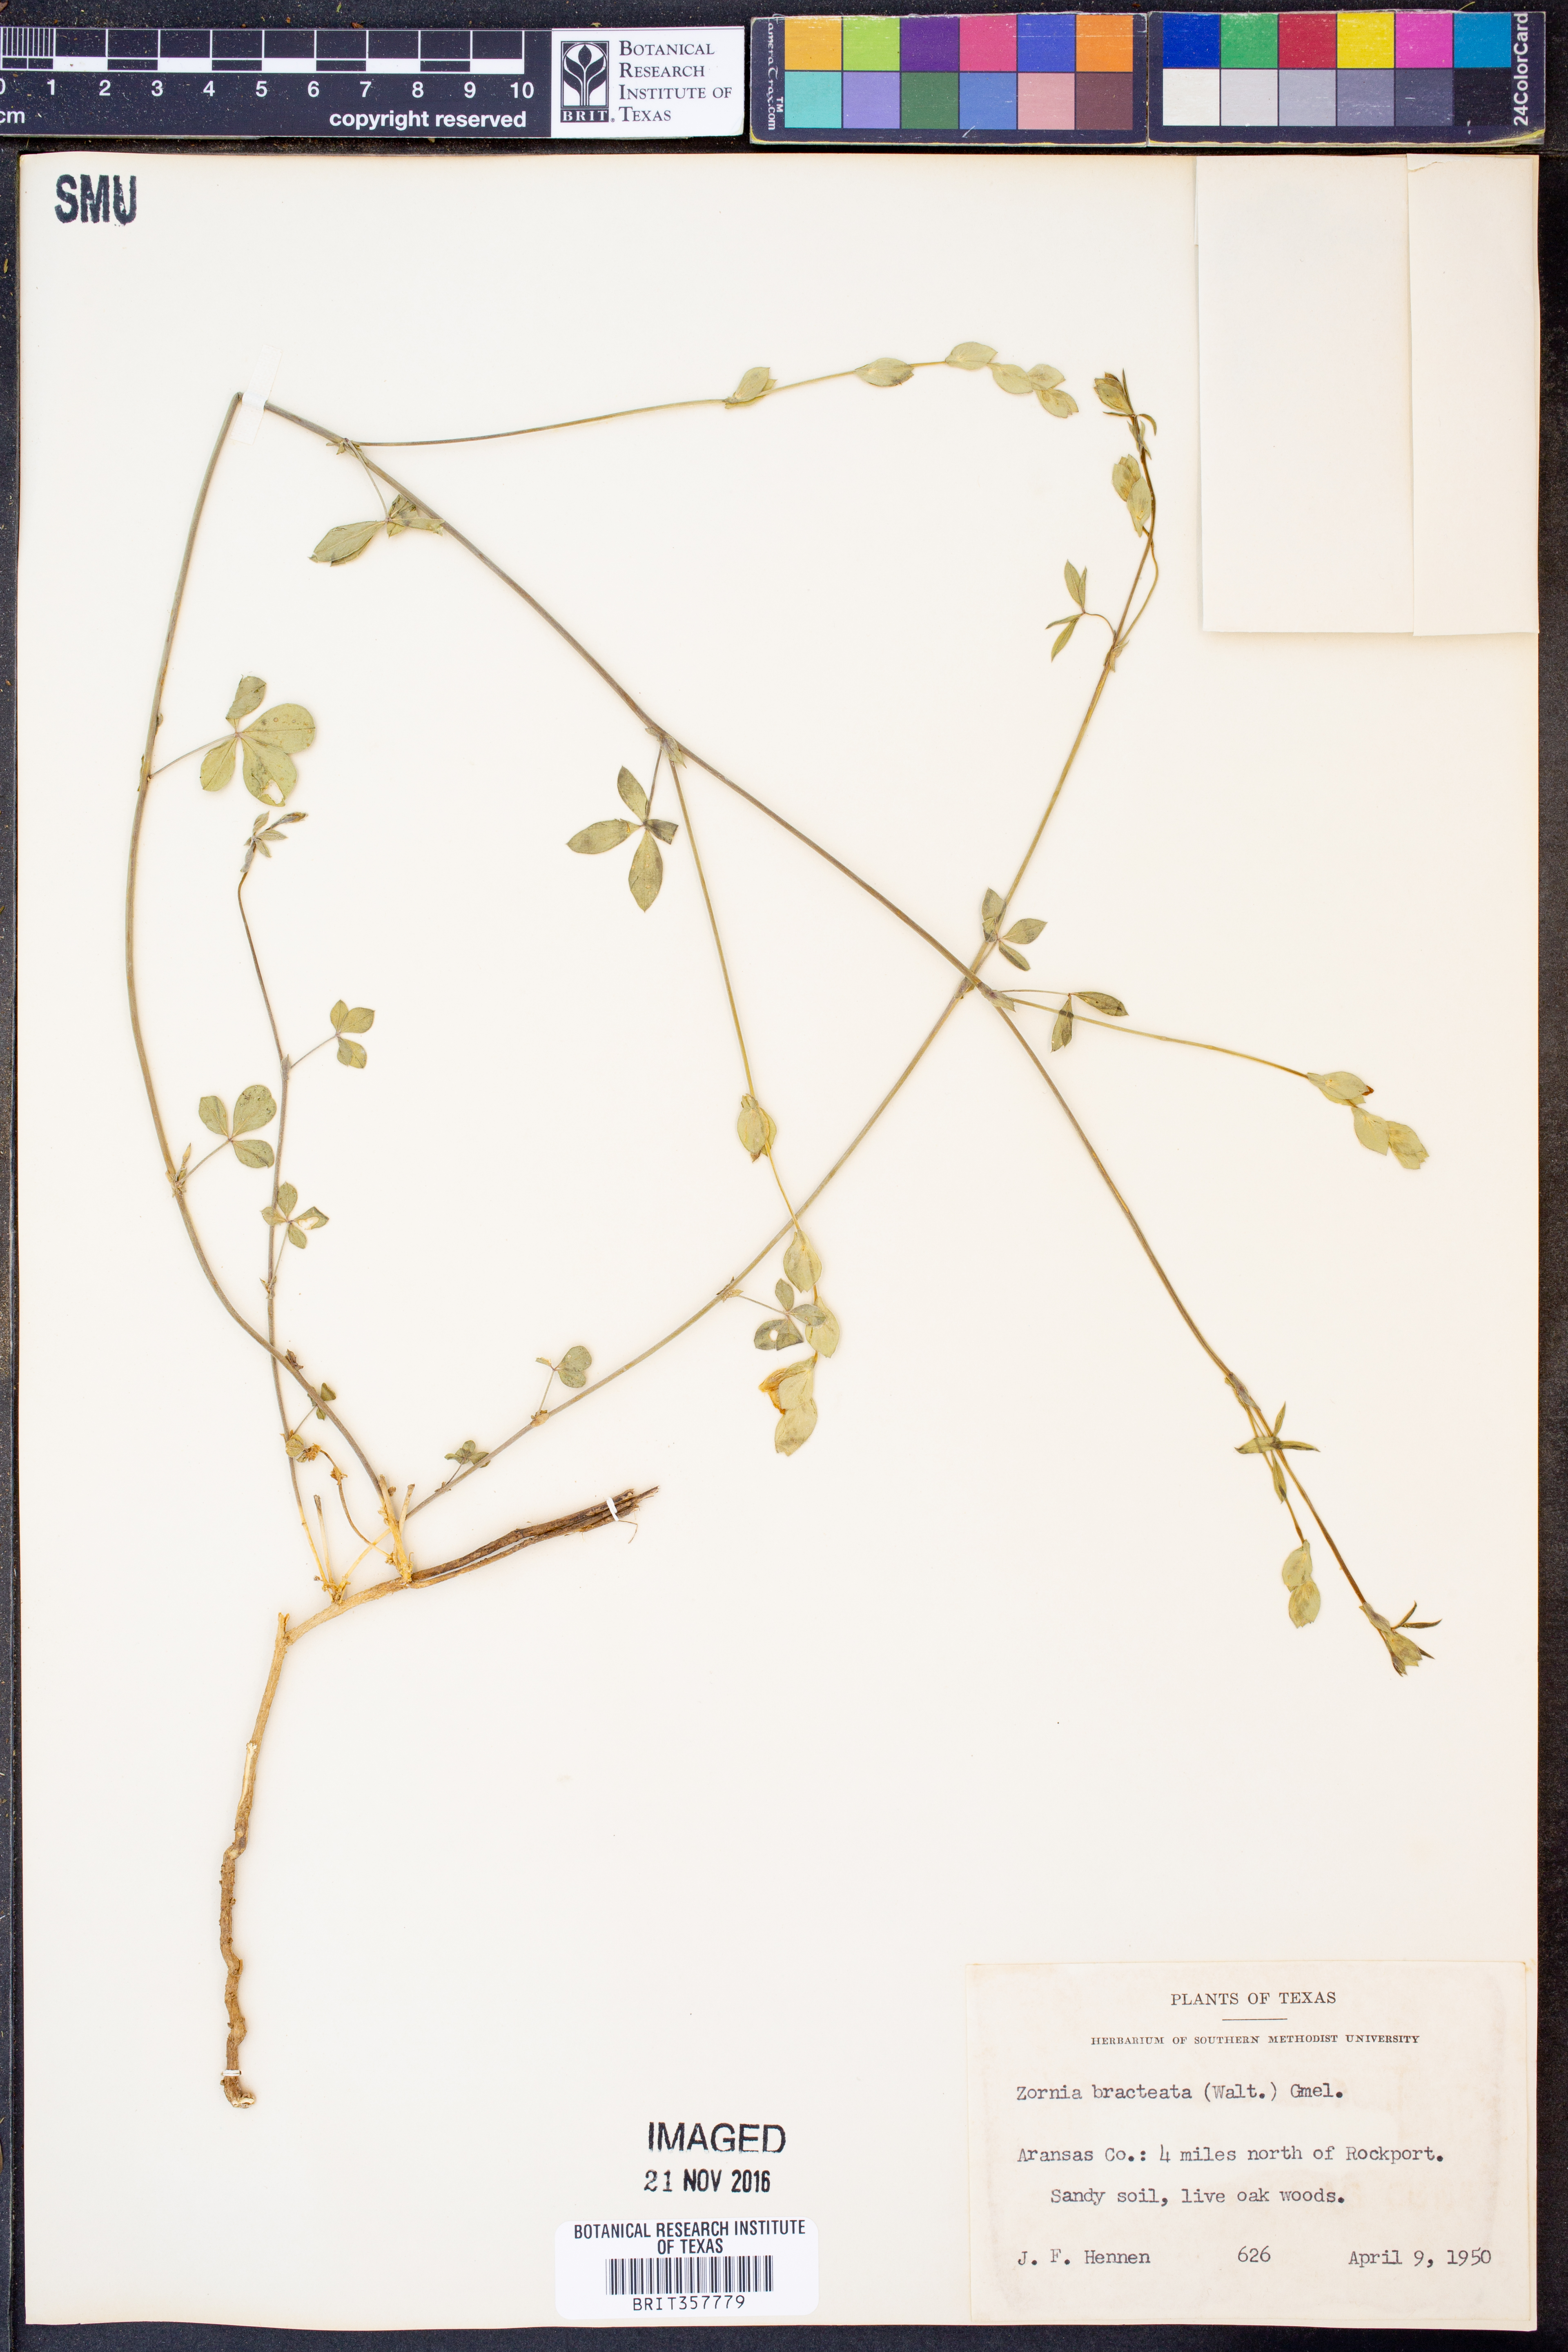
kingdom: Plantae
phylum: Tracheophyta
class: Magnoliopsida
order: Fabales
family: Fabaceae
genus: Zornia
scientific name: Zornia bracteata
